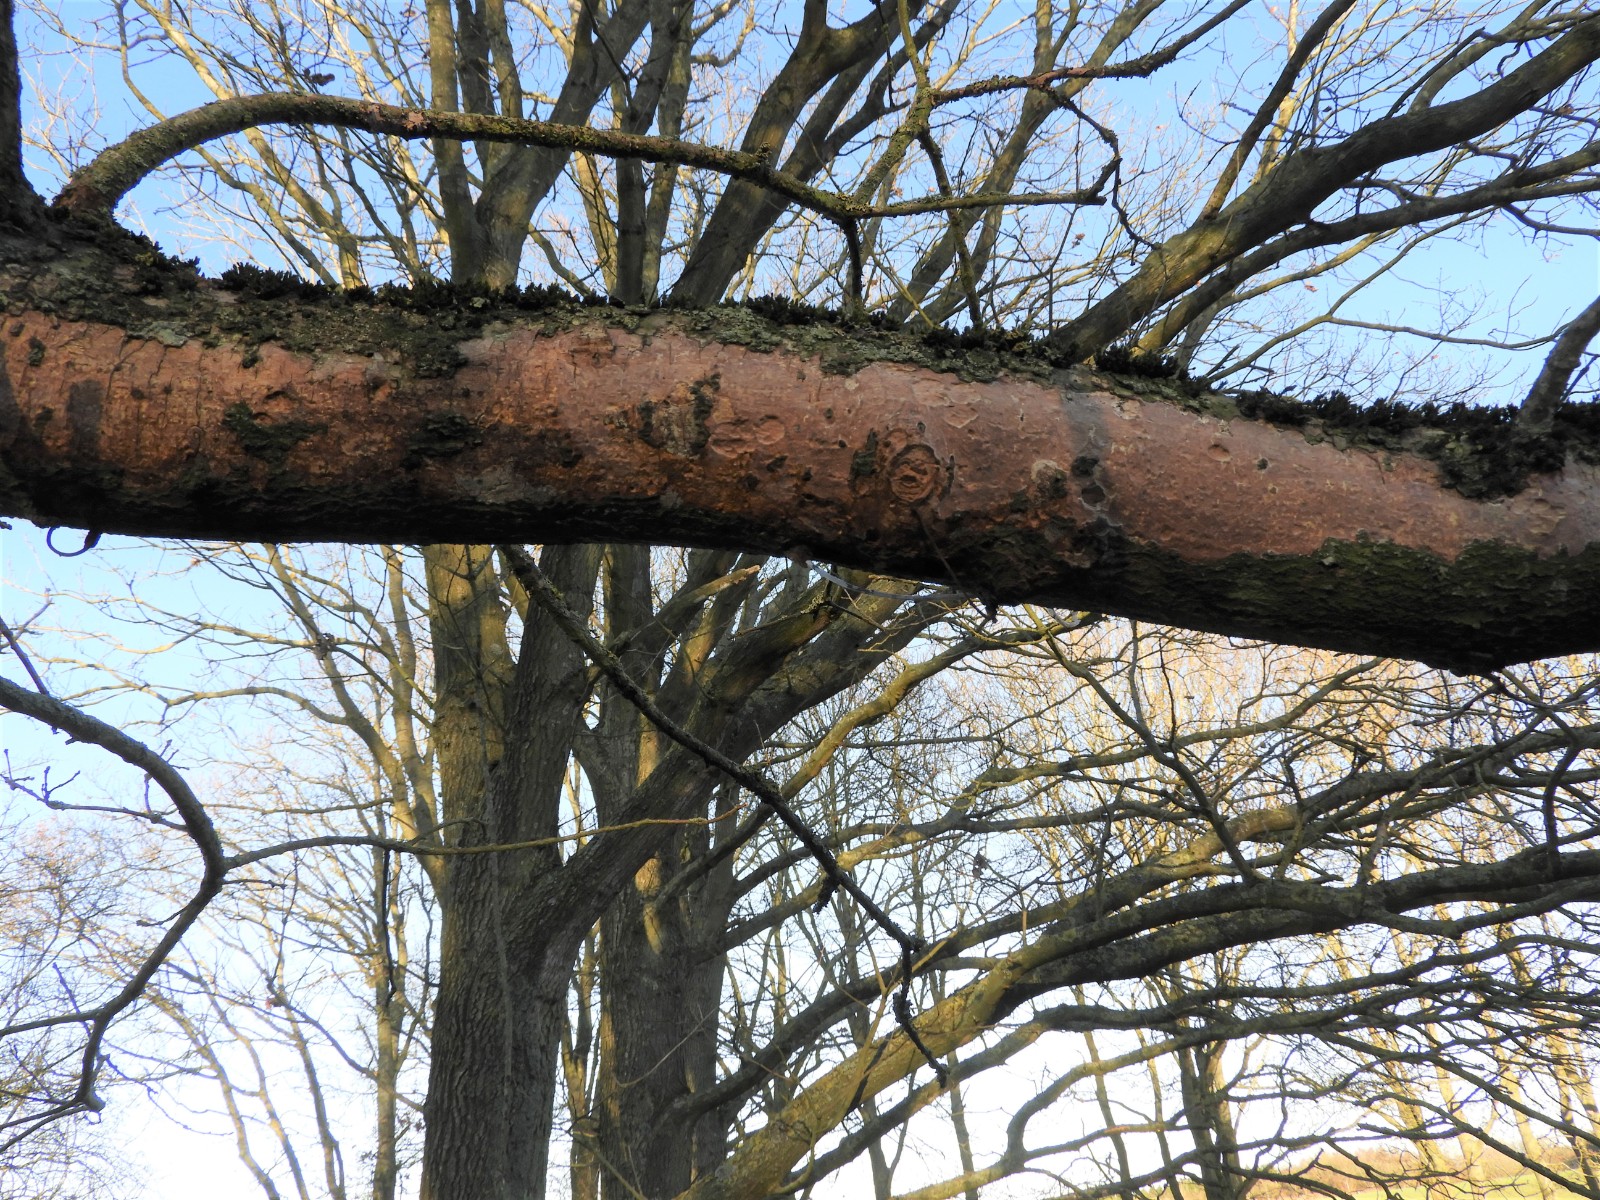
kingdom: Fungi
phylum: Basidiomycota
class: Agaricomycetes
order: Corticiales
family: Vuilleminiaceae
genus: Vuilleminia
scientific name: Vuilleminia comedens
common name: almindelig barksprænger
